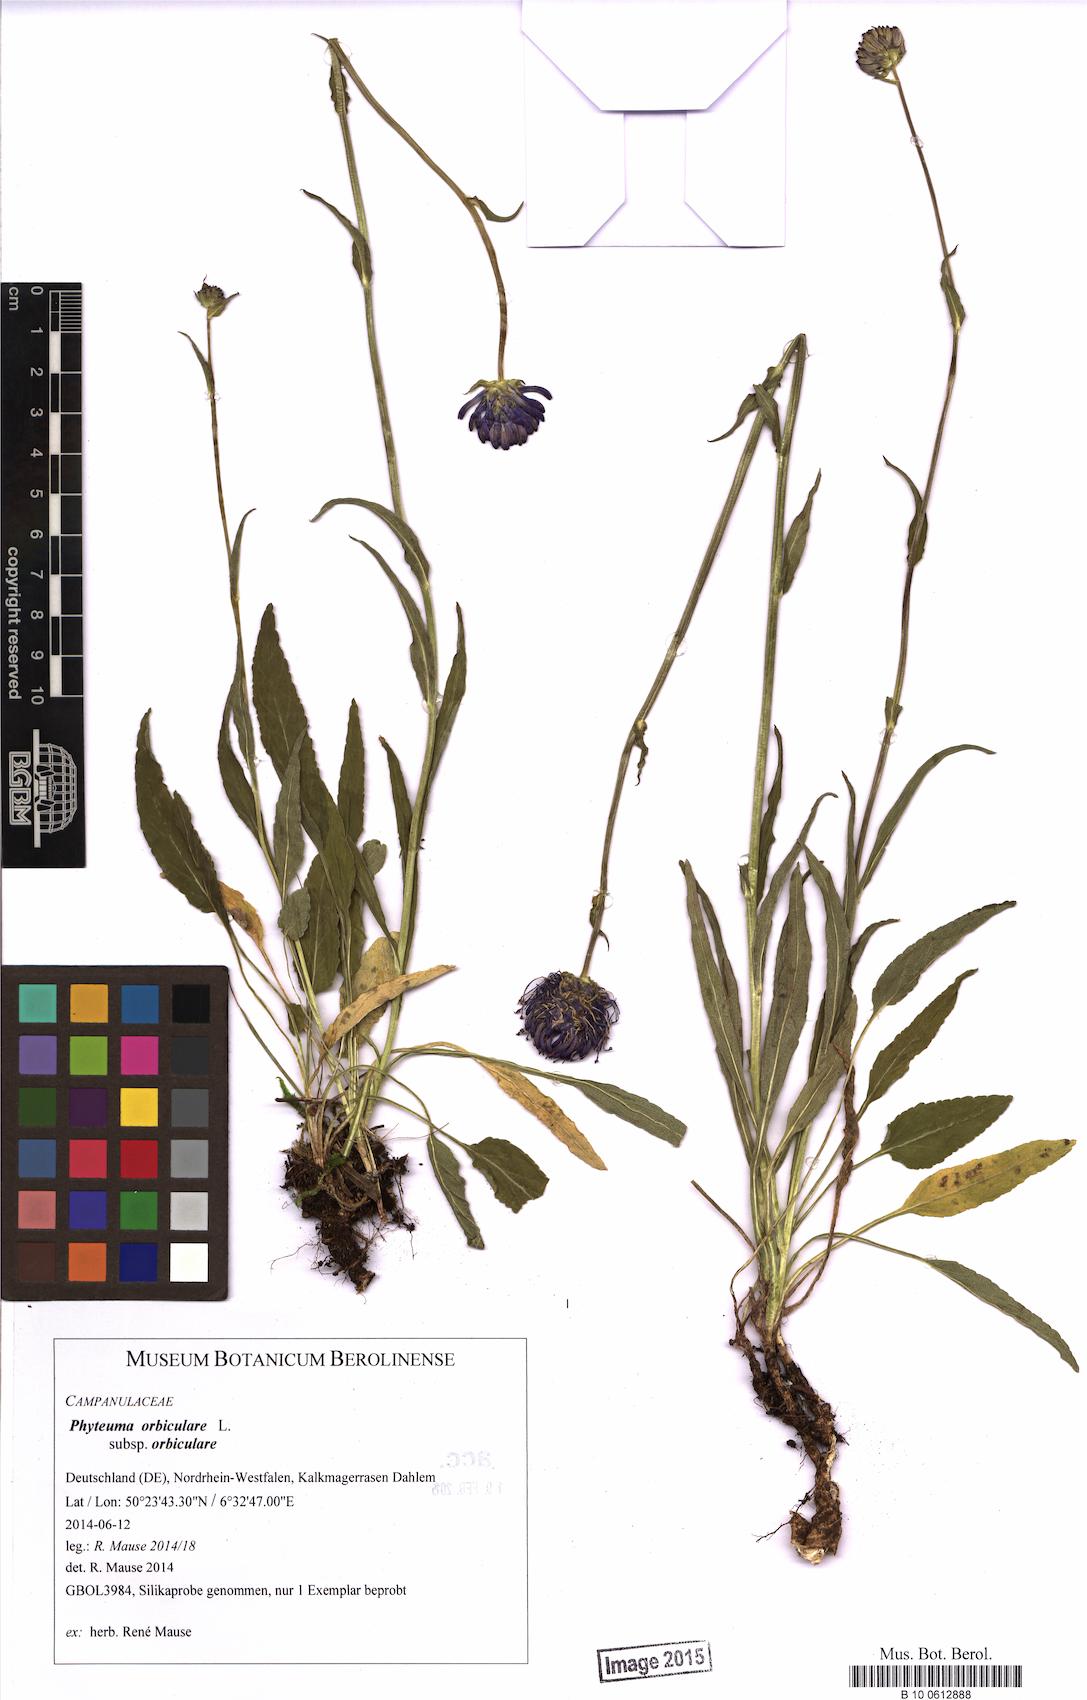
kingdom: Plantae
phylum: Tracheophyta
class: Magnoliopsida
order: Asterales
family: Campanulaceae
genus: Phyteuma
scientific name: Phyteuma orbiculare
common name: Round-headed rampion
